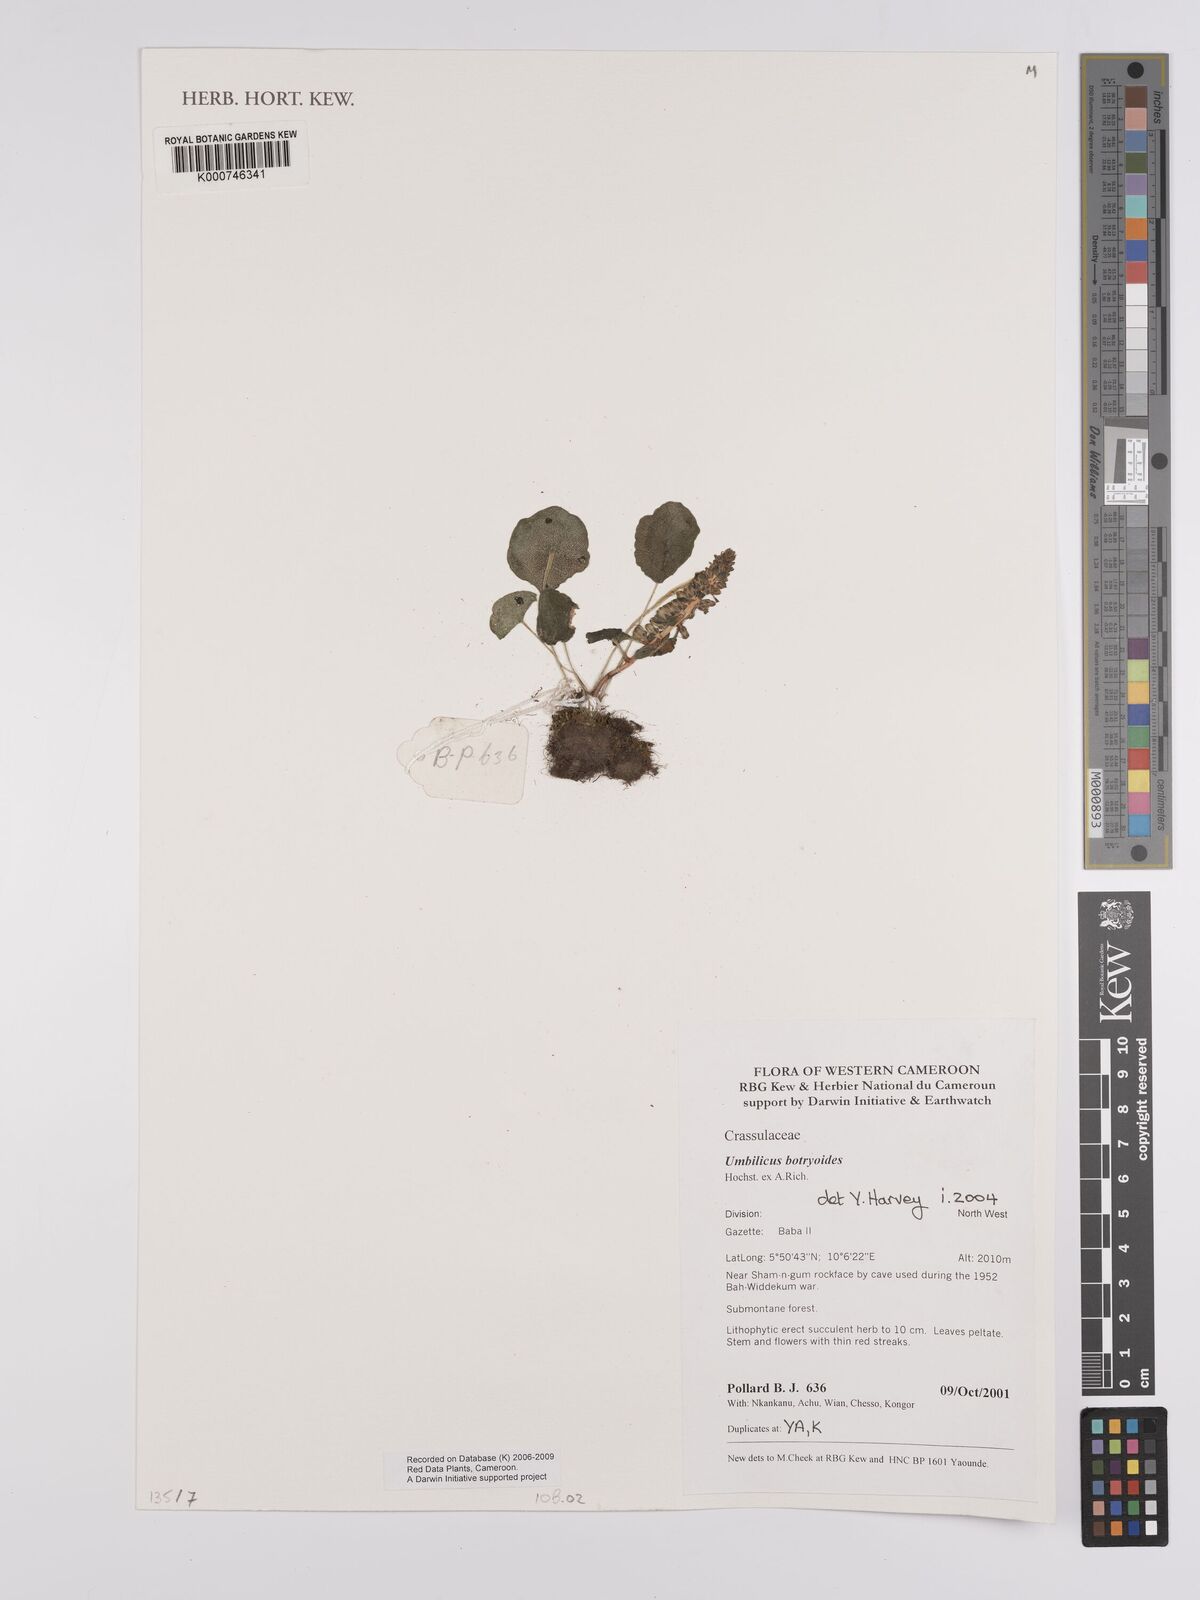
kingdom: Plantae
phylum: Tracheophyta
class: Magnoliopsida
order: Saxifragales
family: Crassulaceae
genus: Umbilicus
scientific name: Umbilicus botryoides
